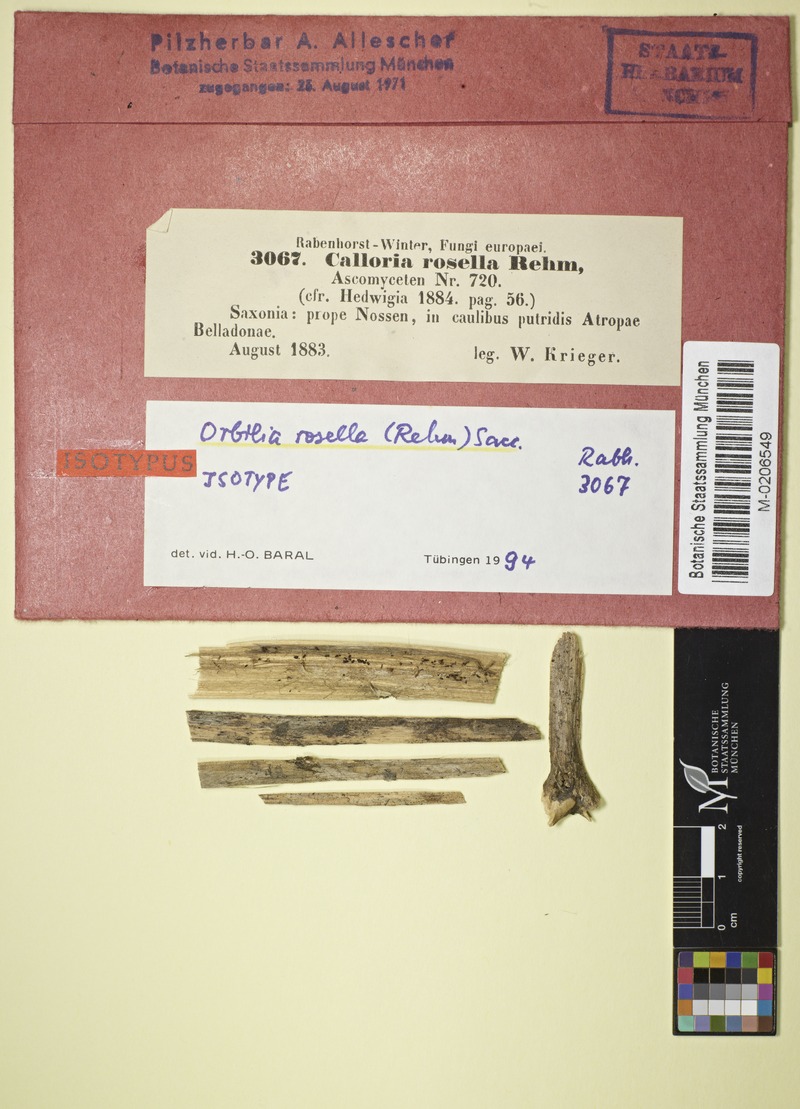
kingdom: Fungi
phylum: Ascomycota
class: Orbiliomycetes
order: Orbiliales
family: Orbiliaceae
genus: Orbilia
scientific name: Orbilia rosella
